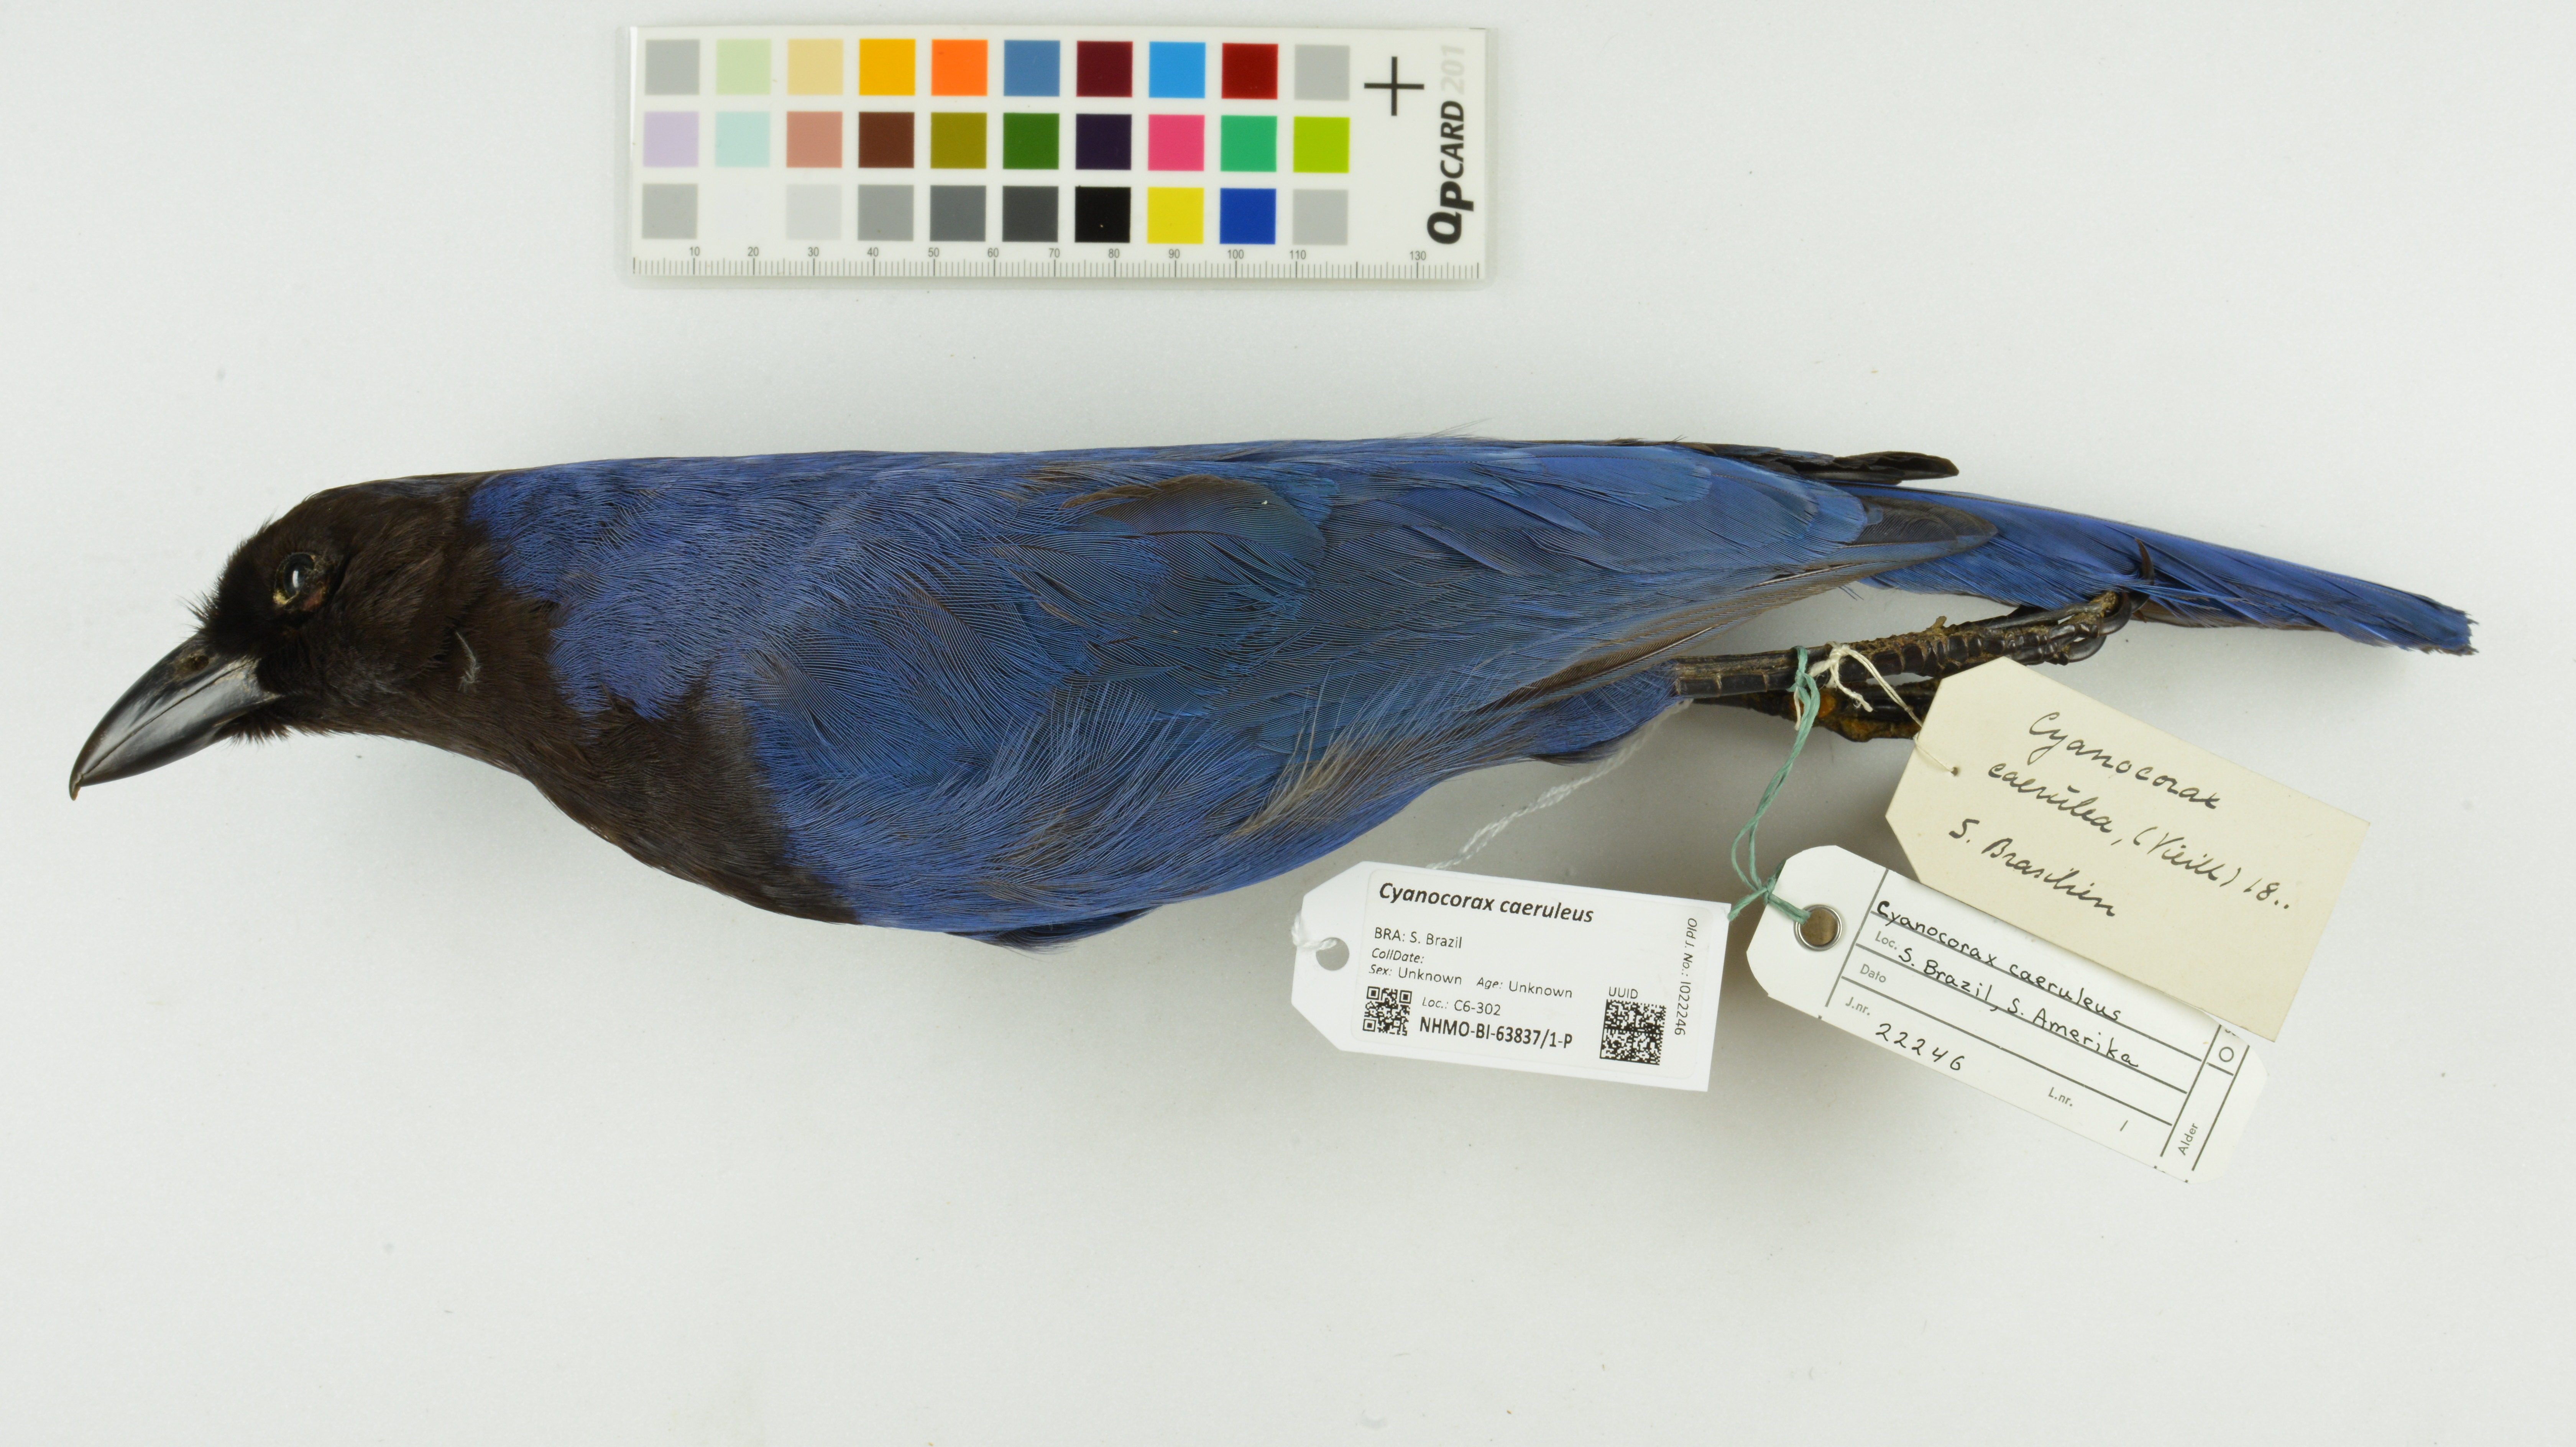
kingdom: Animalia
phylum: Chordata
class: Aves
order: Passeriformes
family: Corvidae
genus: Cyanocorax
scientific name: Cyanocorax caeruleus
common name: Azure jay
